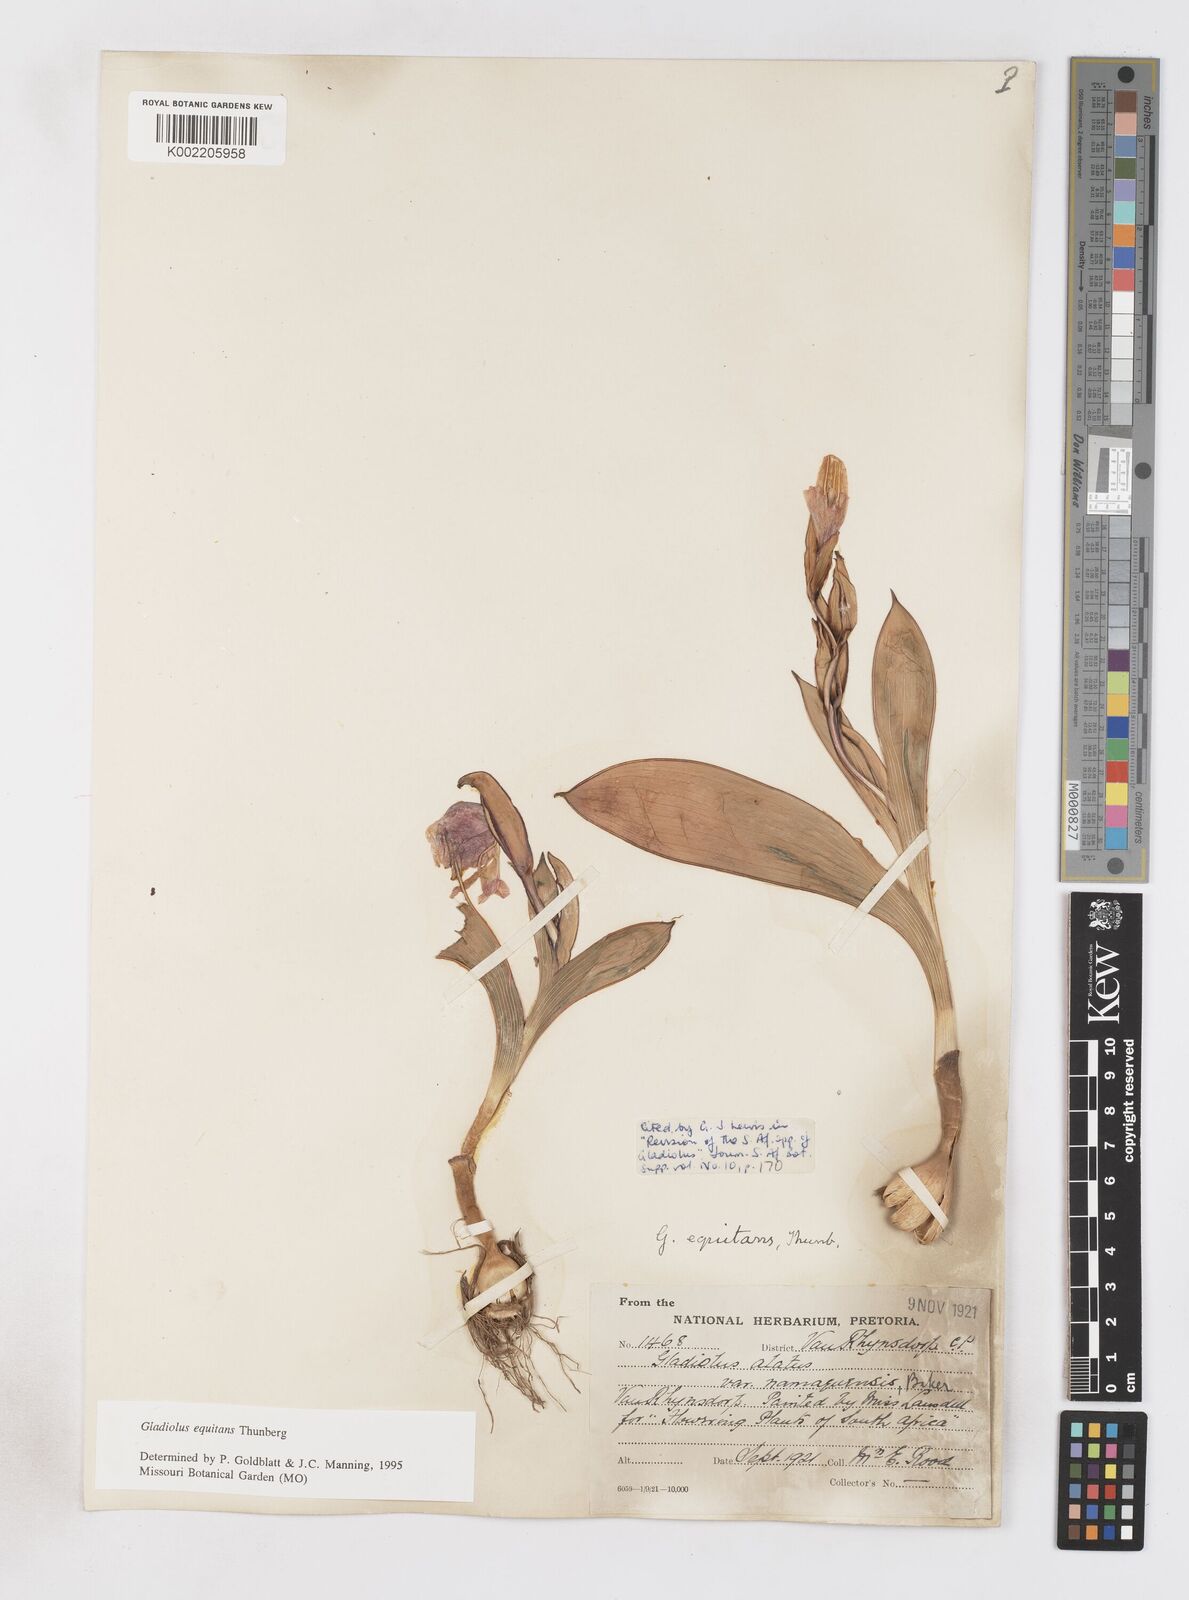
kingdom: Plantae
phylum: Tracheophyta
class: Liliopsida
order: Asparagales
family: Iridaceae
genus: Gladiolus
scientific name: Gladiolus equitans
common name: Large red kalkoentjie
